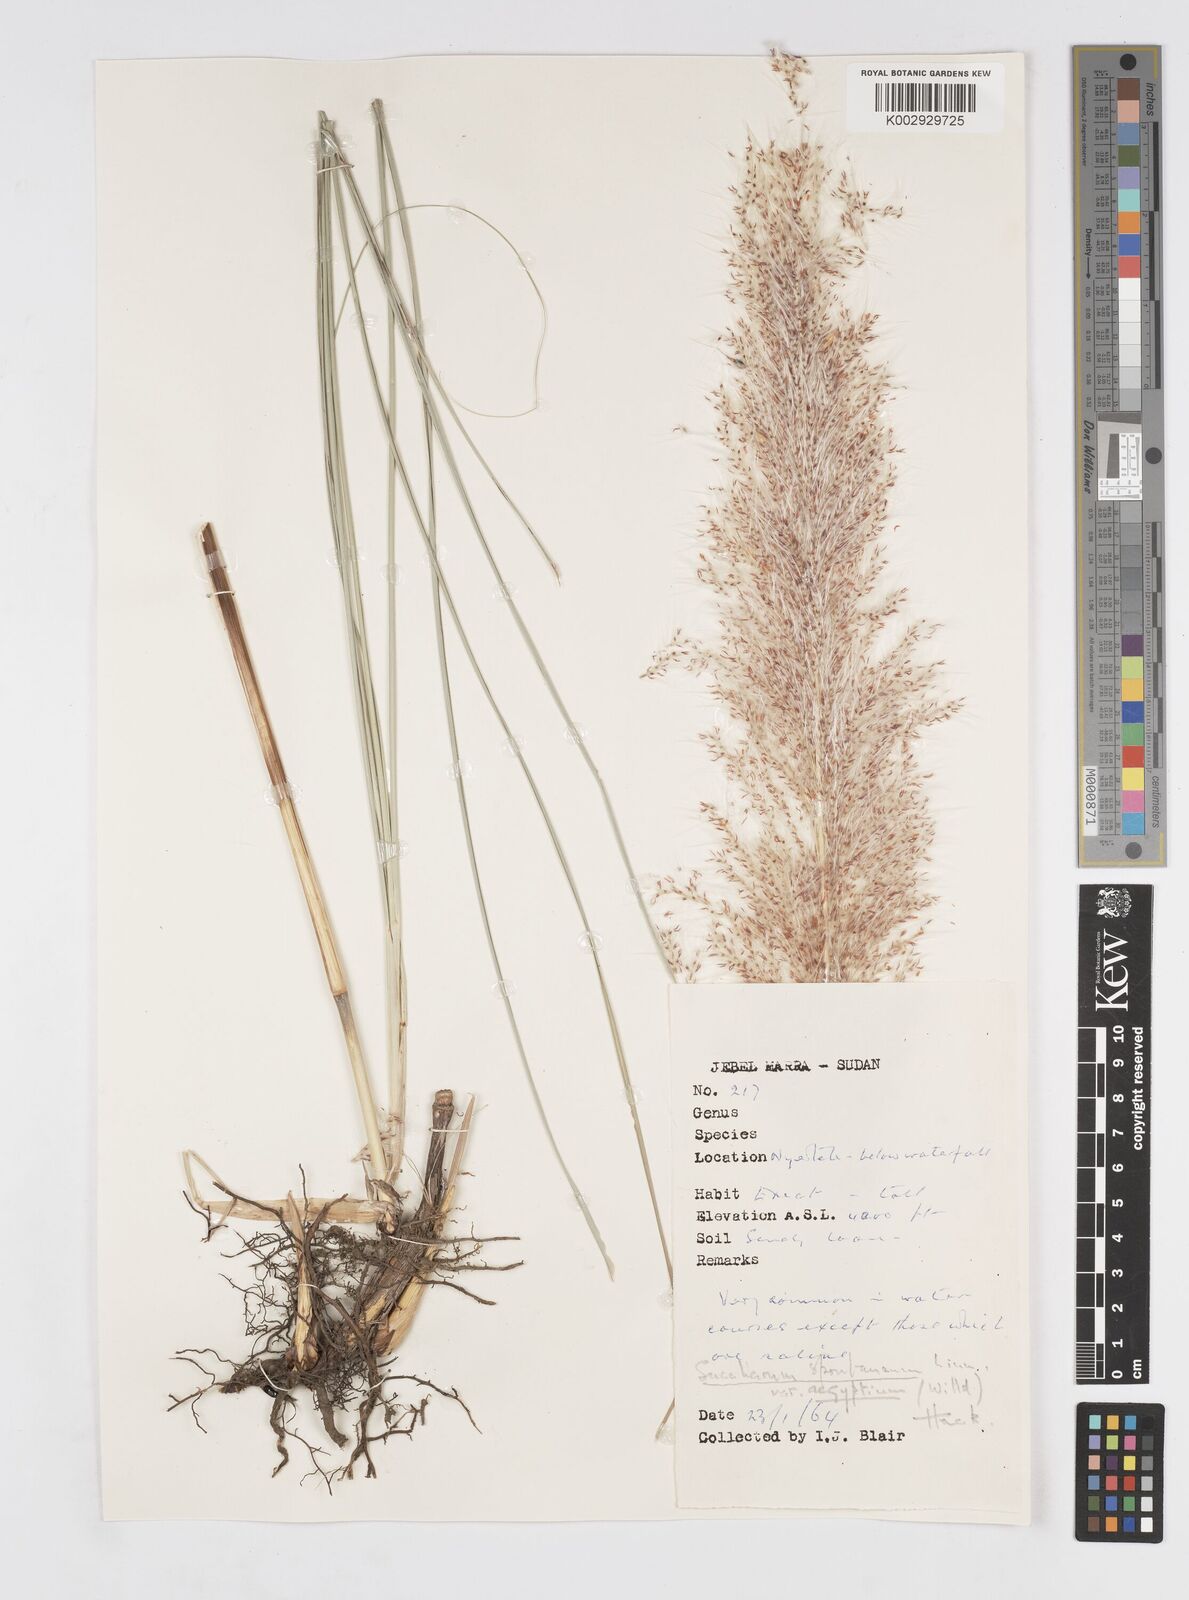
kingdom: Plantae
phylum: Tracheophyta
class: Liliopsida
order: Poales
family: Poaceae
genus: Saccharum
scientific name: Saccharum spontaneum
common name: Wild sugarcane
